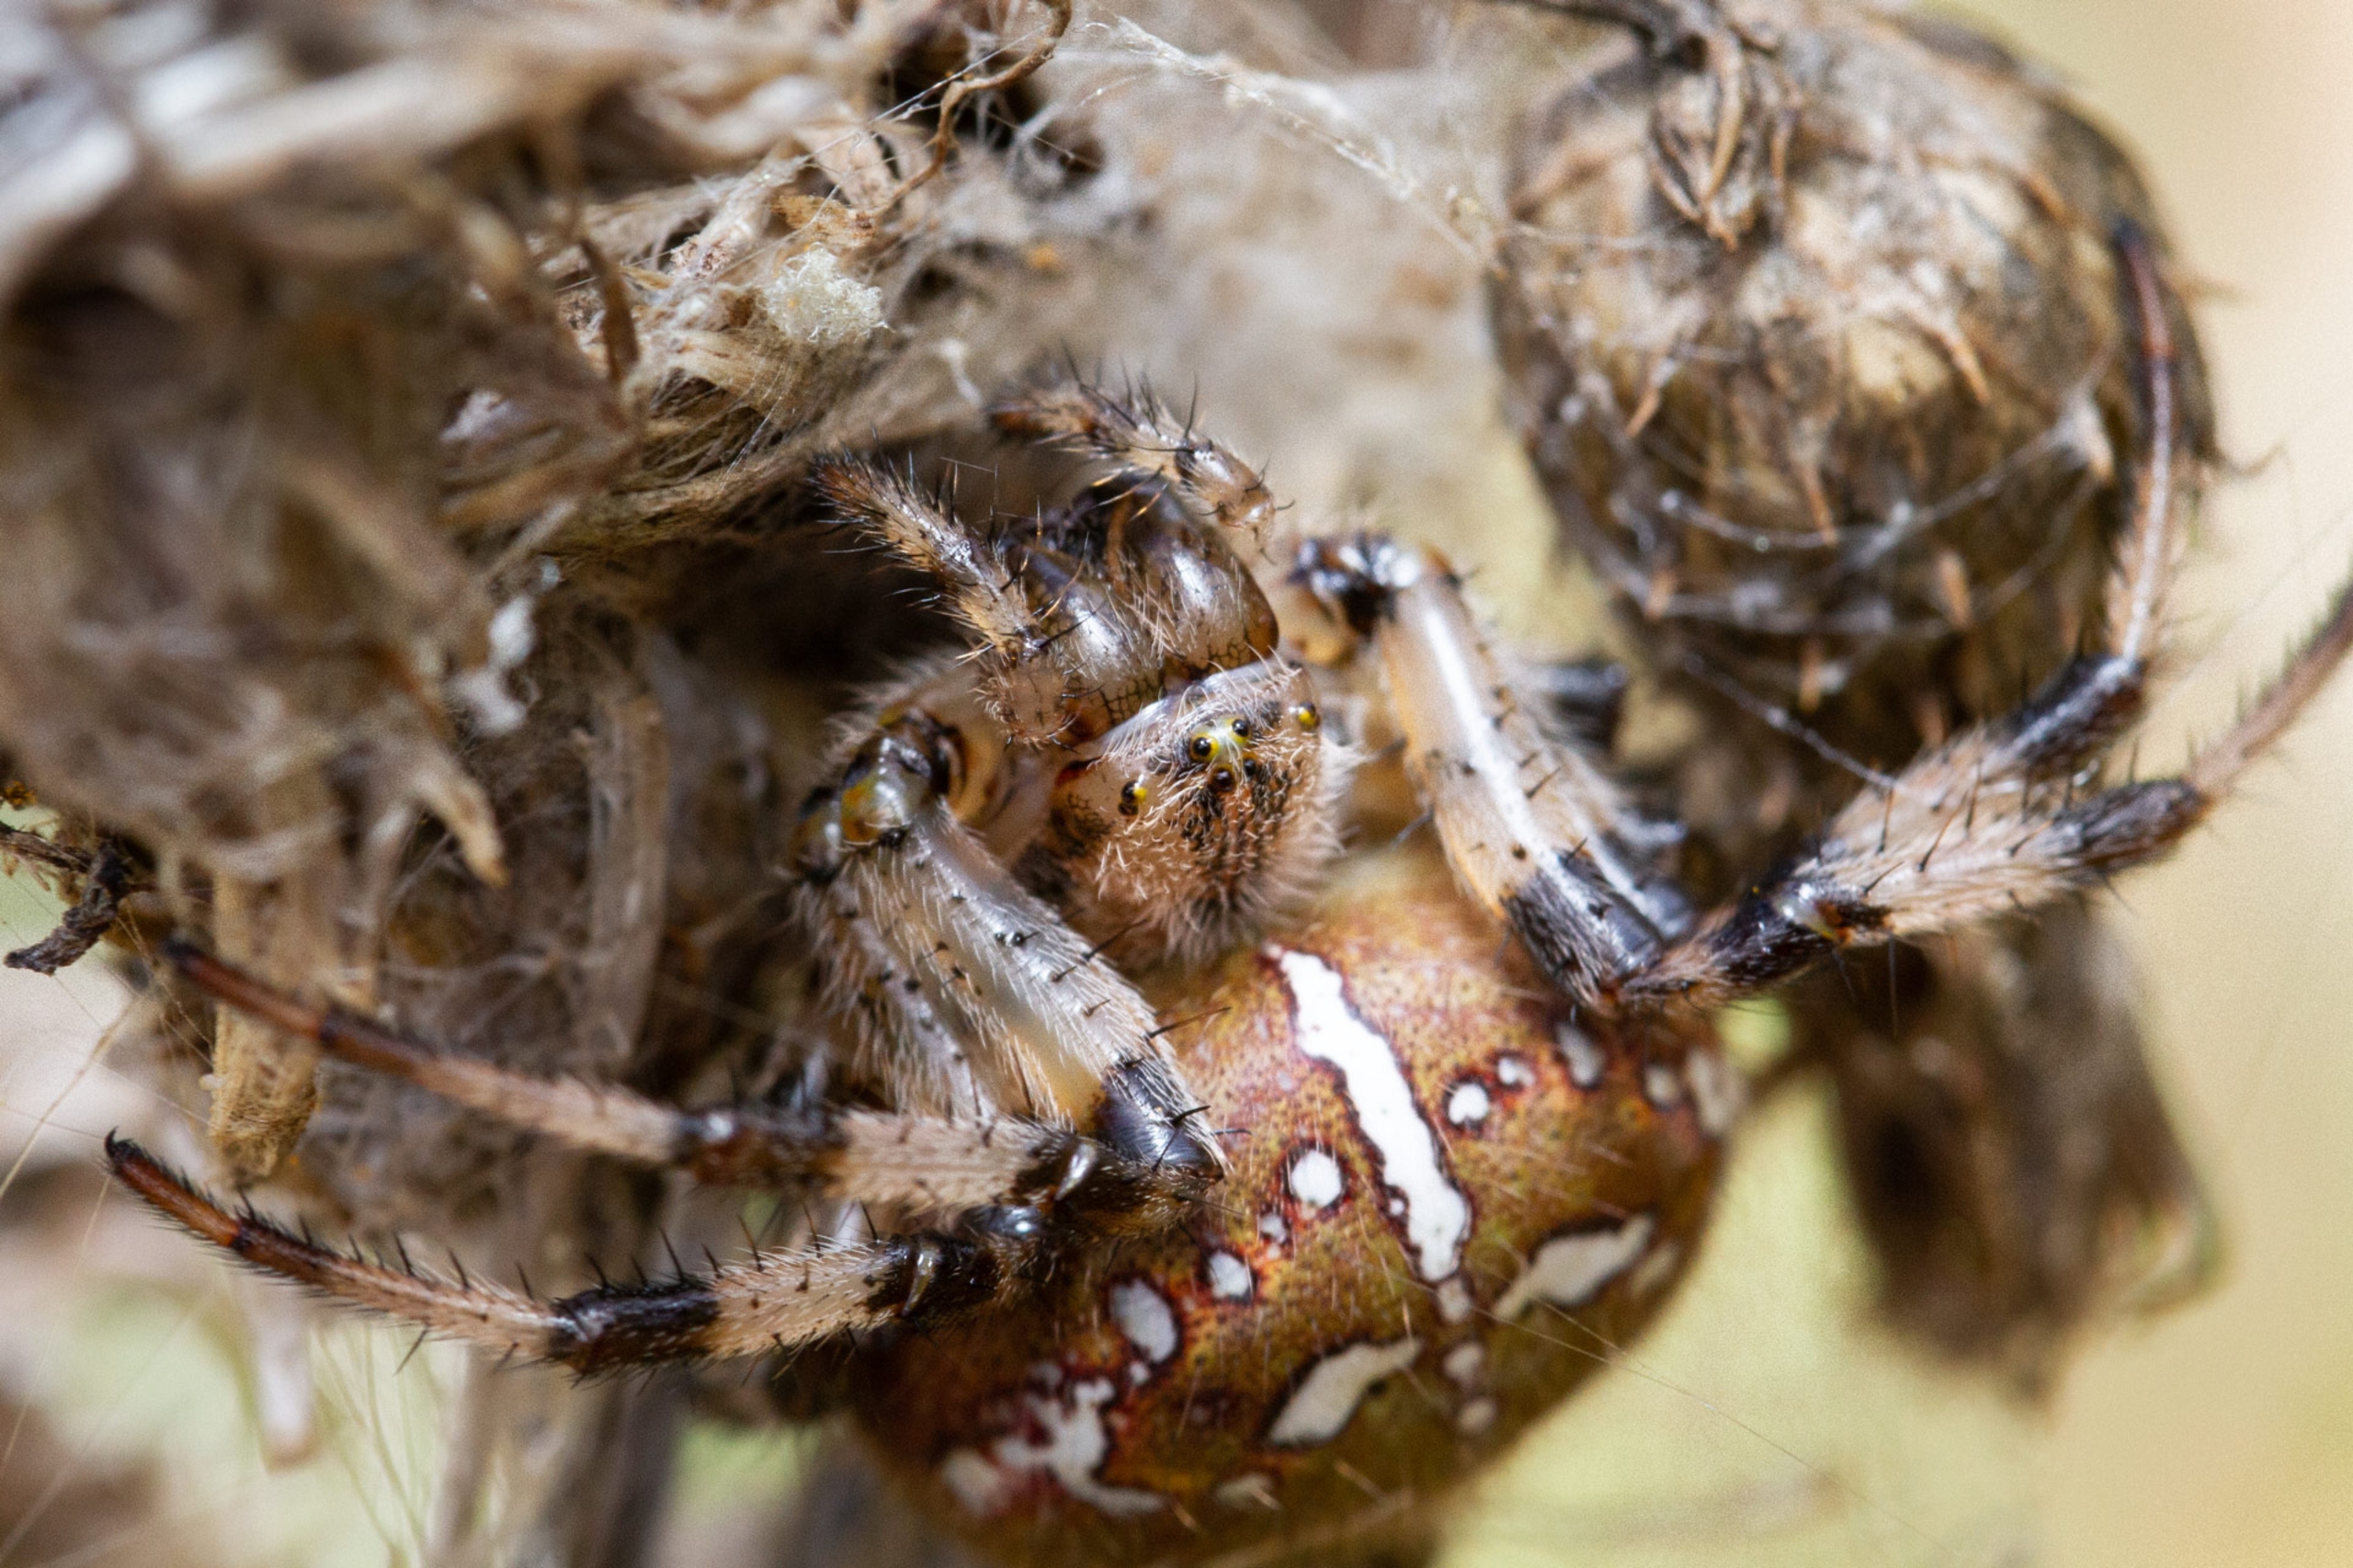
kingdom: Animalia
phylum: Arthropoda
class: Arachnida
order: Araneae
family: Araneidae
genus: Araneus
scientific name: Araneus quadratus
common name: Kvadratedderkop
